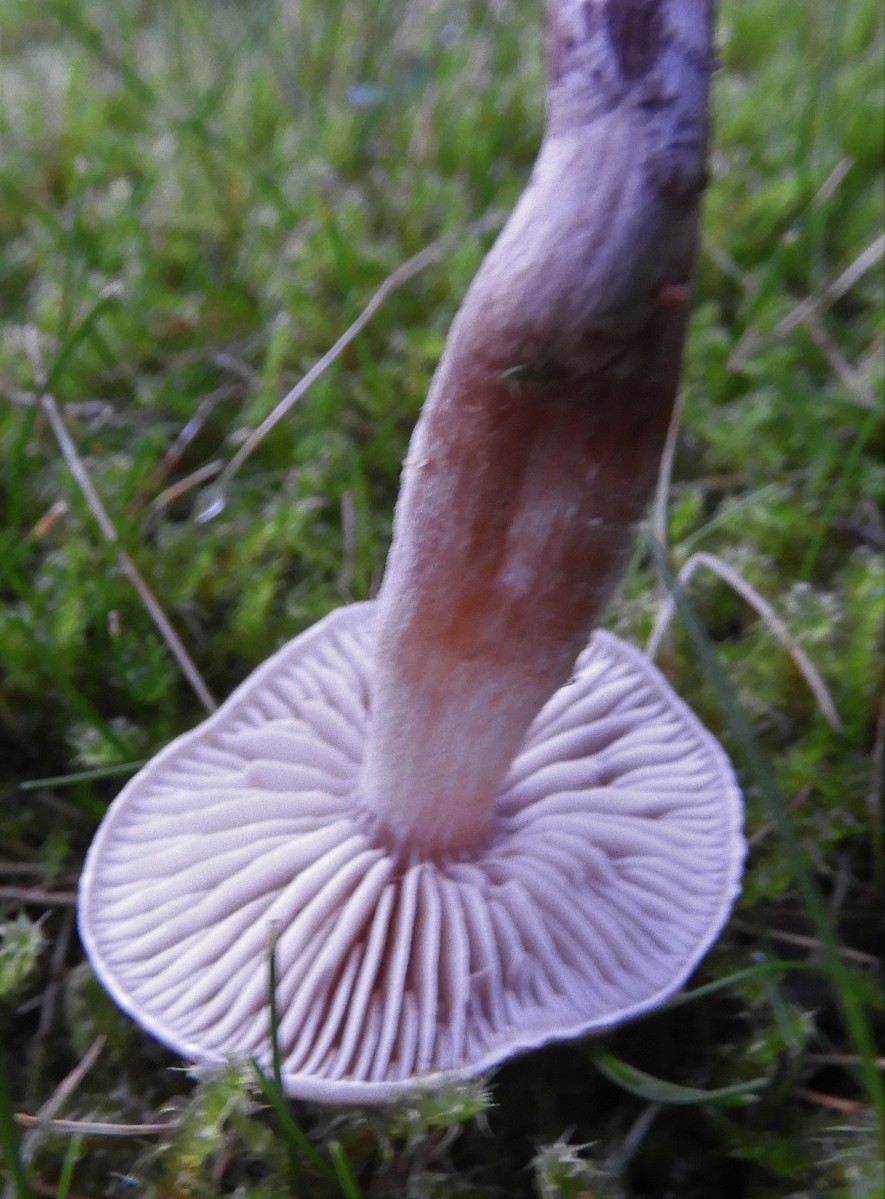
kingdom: Fungi
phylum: Basidiomycota
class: Agaricomycetes
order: Agaricales
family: Cortinariaceae
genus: Cortinarius
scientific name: Cortinarius
